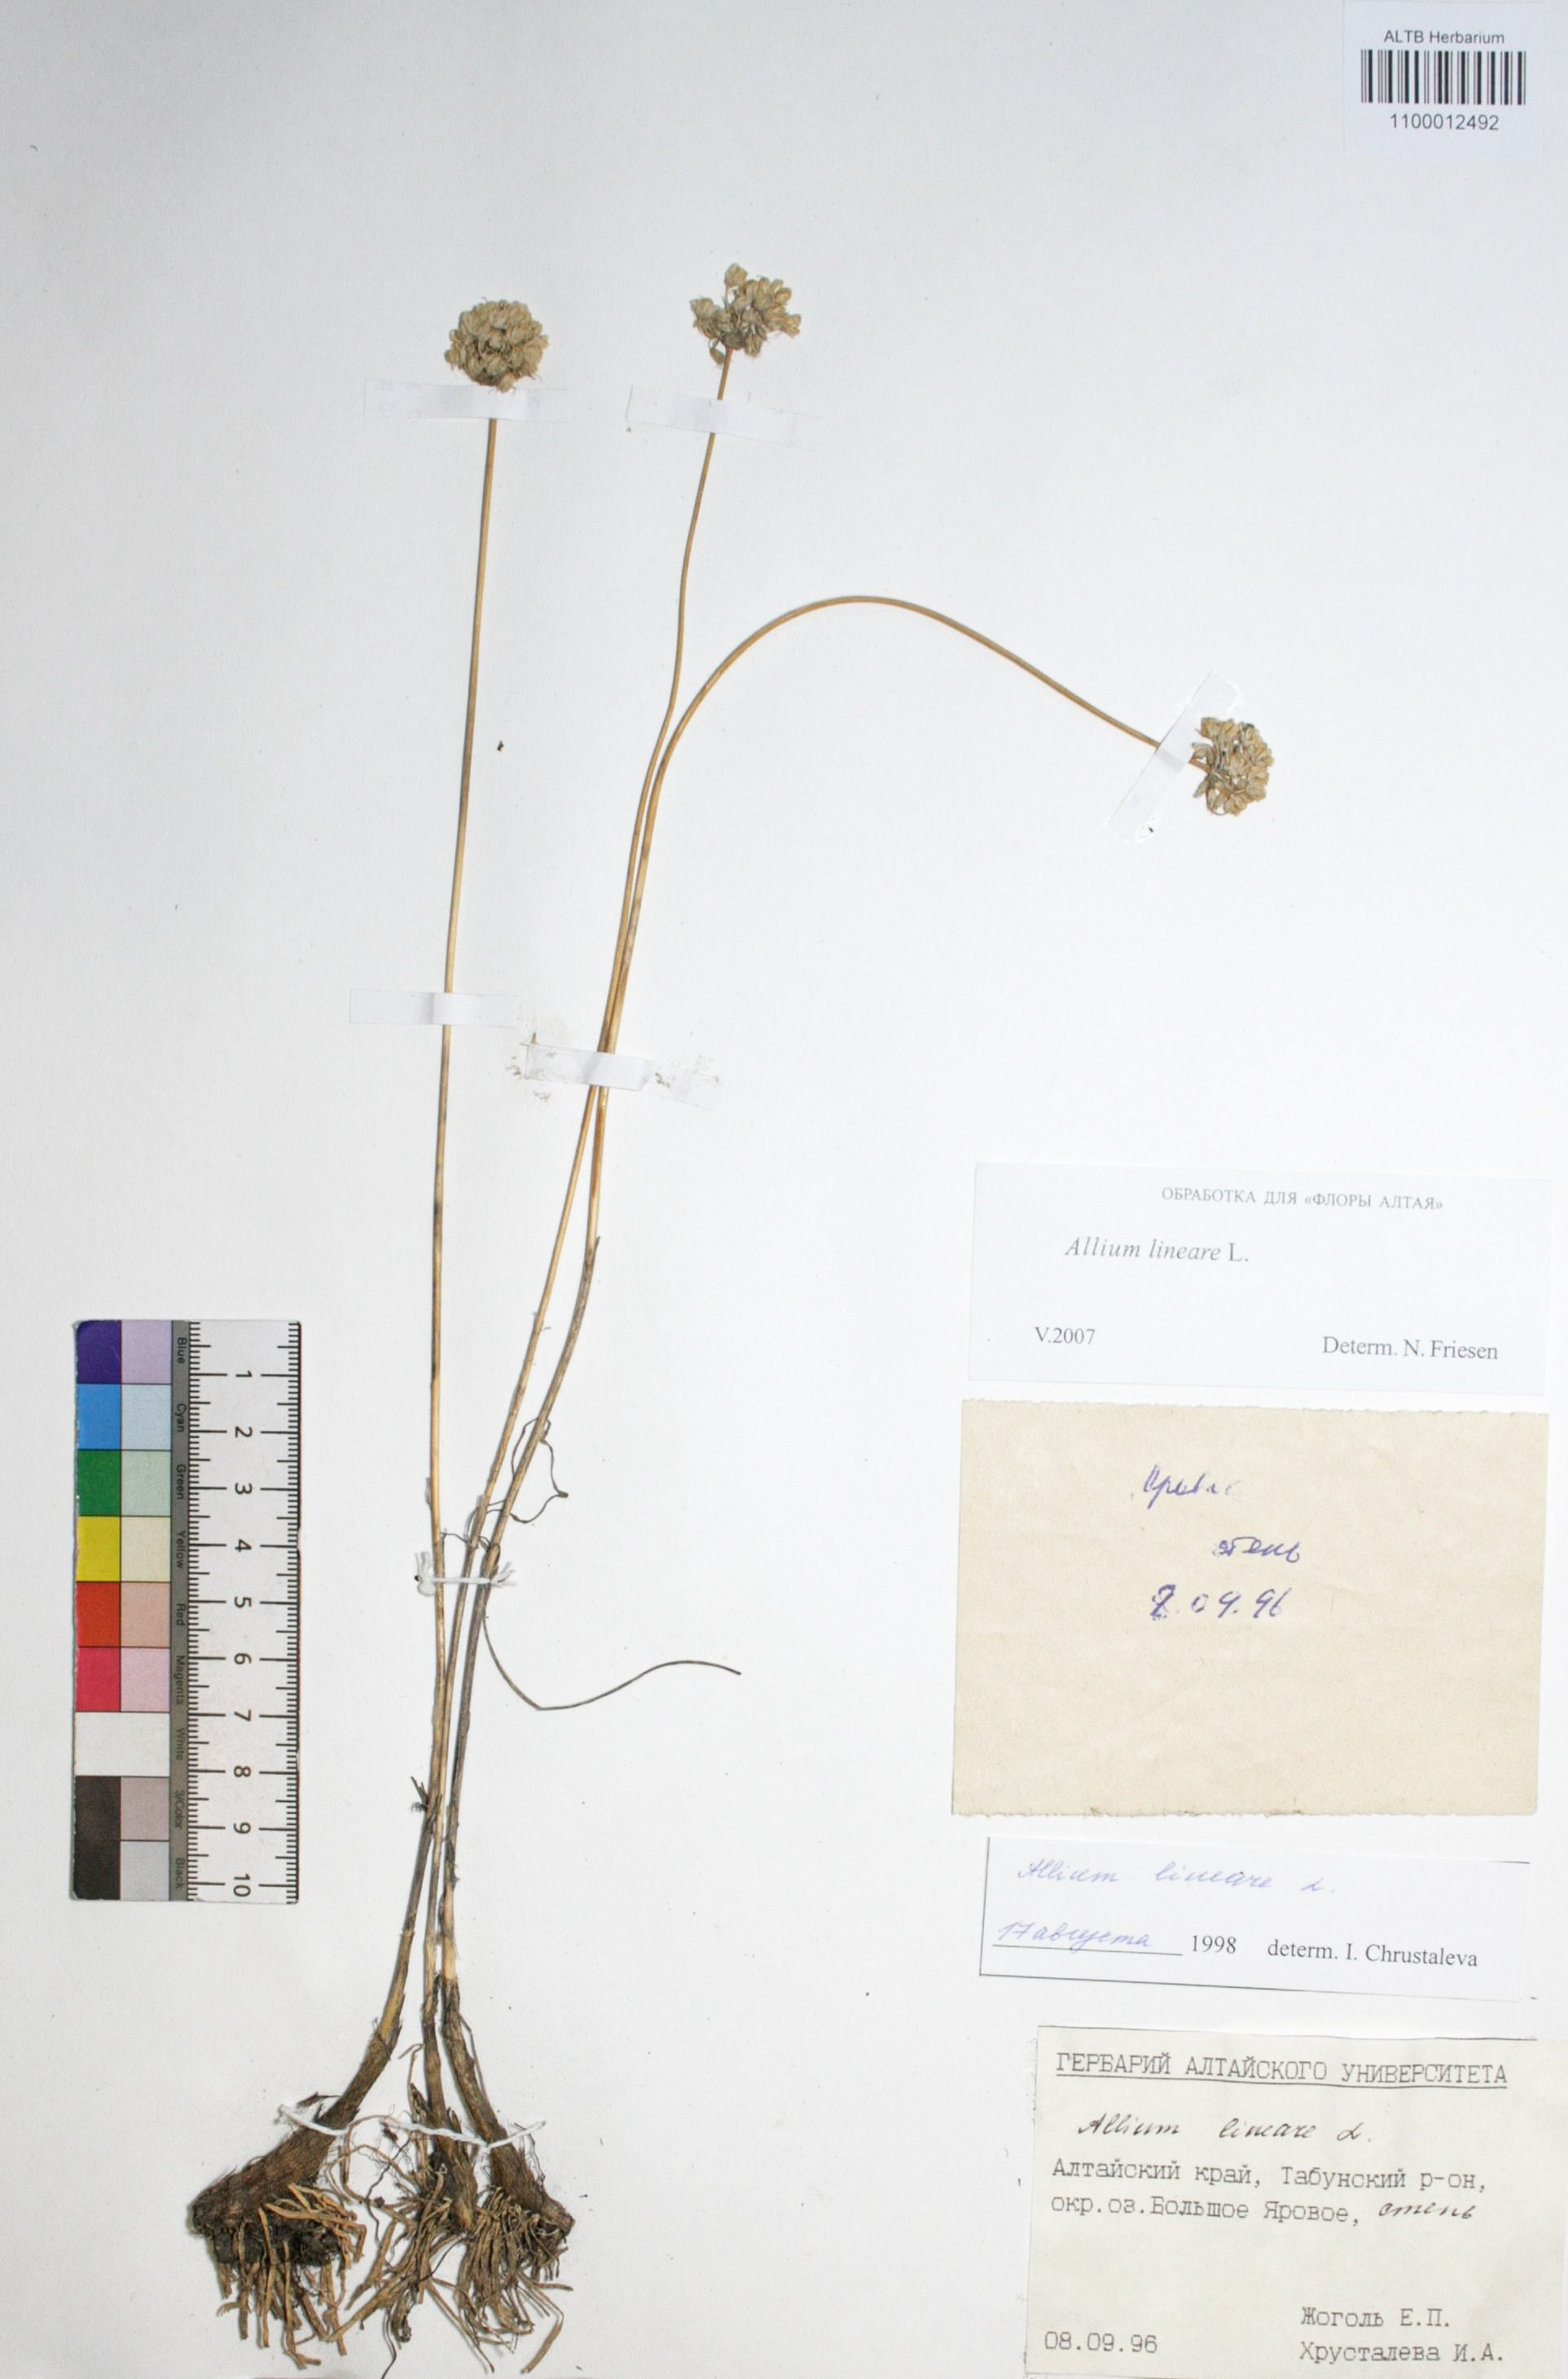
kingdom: Plantae
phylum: Tracheophyta
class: Liliopsida
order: Asparagales
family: Amaryllidaceae
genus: Allium
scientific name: Allium lineare
